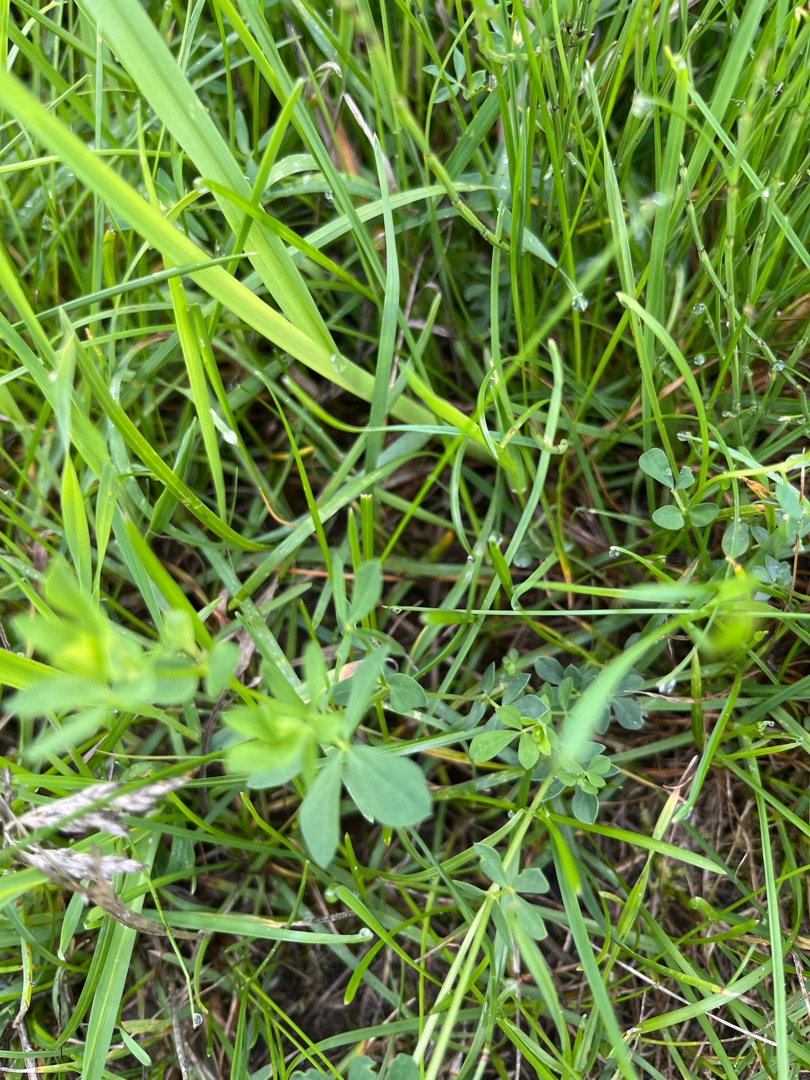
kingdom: Plantae
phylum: Tracheophyta
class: Magnoliopsida
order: Fabales
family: Fabaceae
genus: Lotus
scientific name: Lotus corniculatus
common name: Almindelig kællingetand
